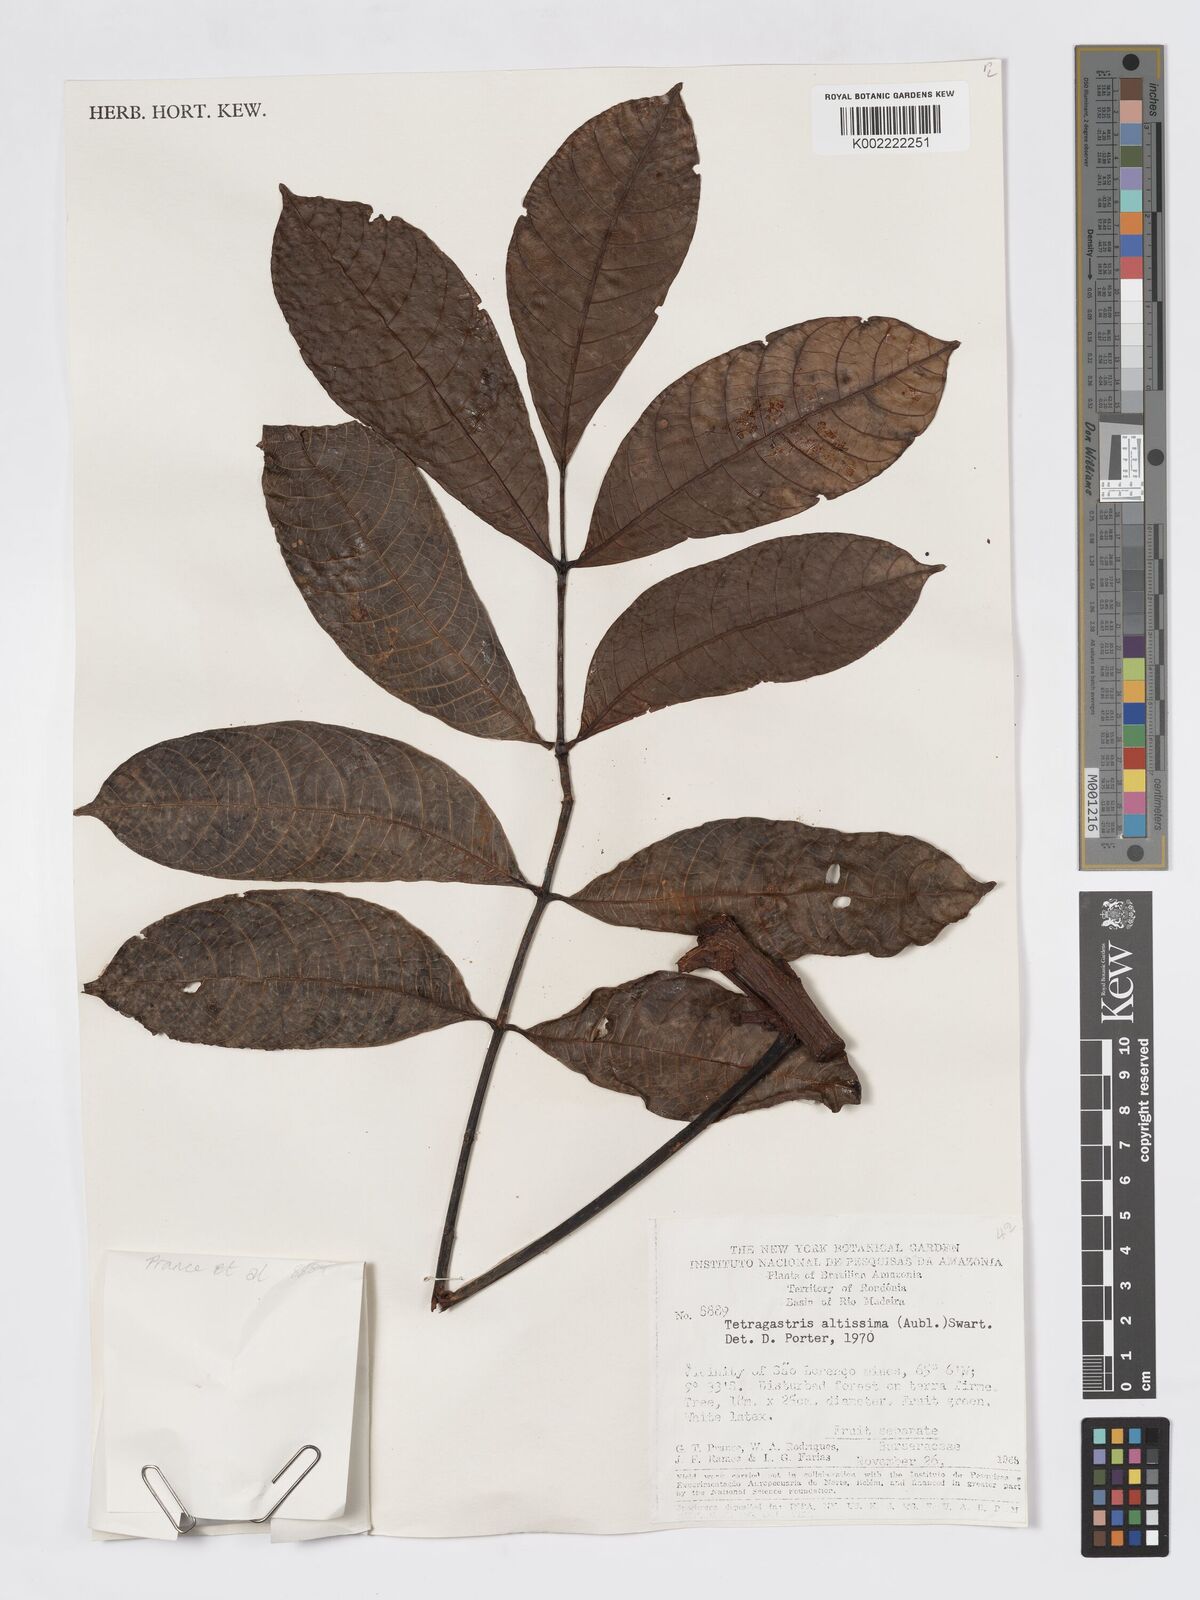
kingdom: Plantae
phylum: Tracheophyta
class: Magnoliopsida
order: Sapindales
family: Burseraceae
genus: Tetragastris
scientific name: Tetragastris altissima
